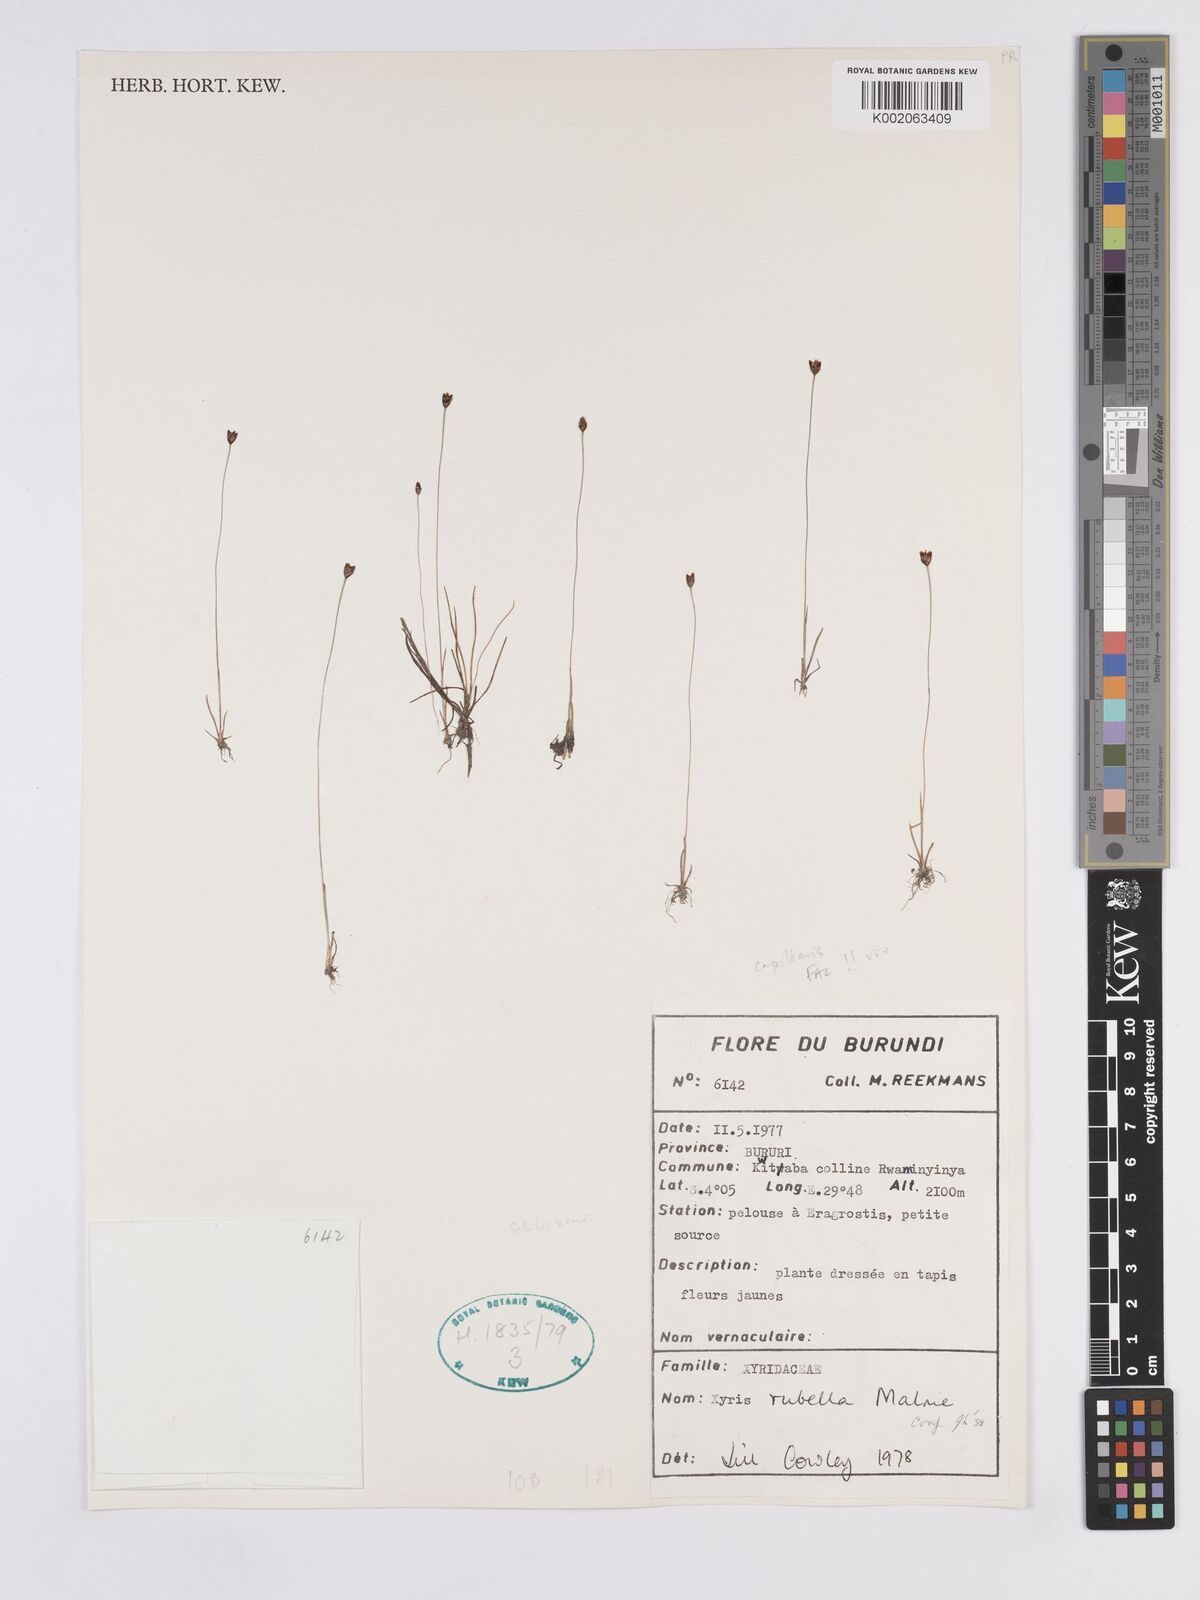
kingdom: Plantae
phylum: Tracheophyta
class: Liliopsida
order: Poales
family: Xyridaceae
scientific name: Xyridaceae
